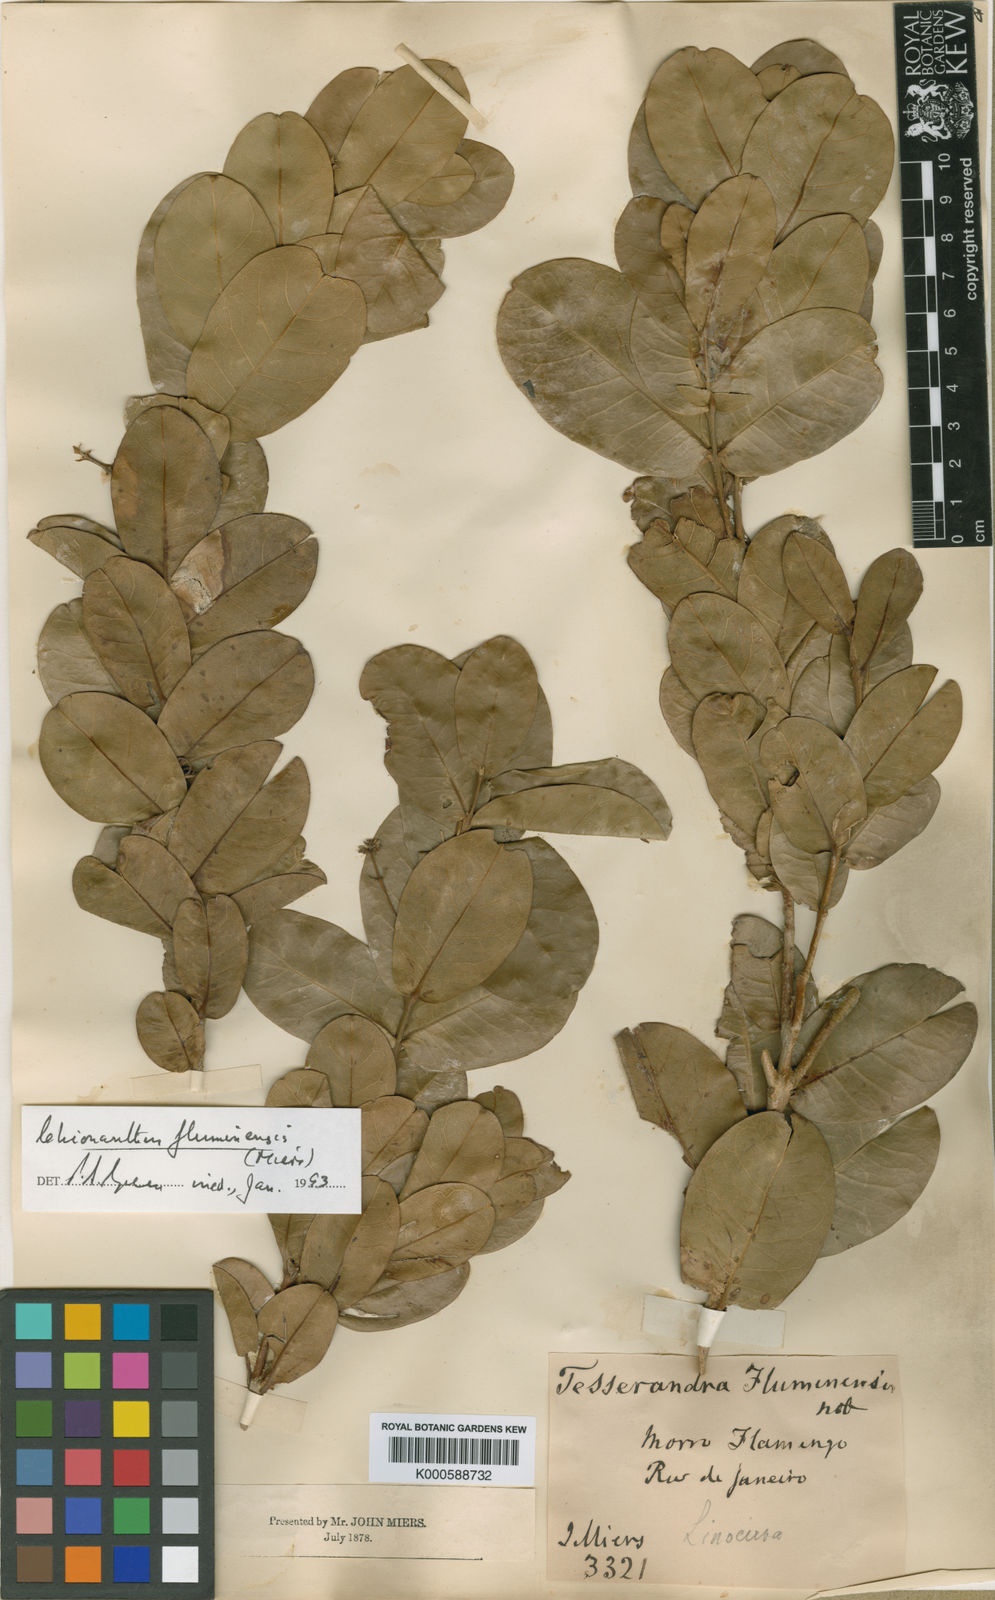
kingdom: Plantae
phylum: Tracheophyta
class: Magnoliopsida
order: Lamiales
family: Oleaceae
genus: Chionanthus
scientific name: Chionanthus fluminensis
